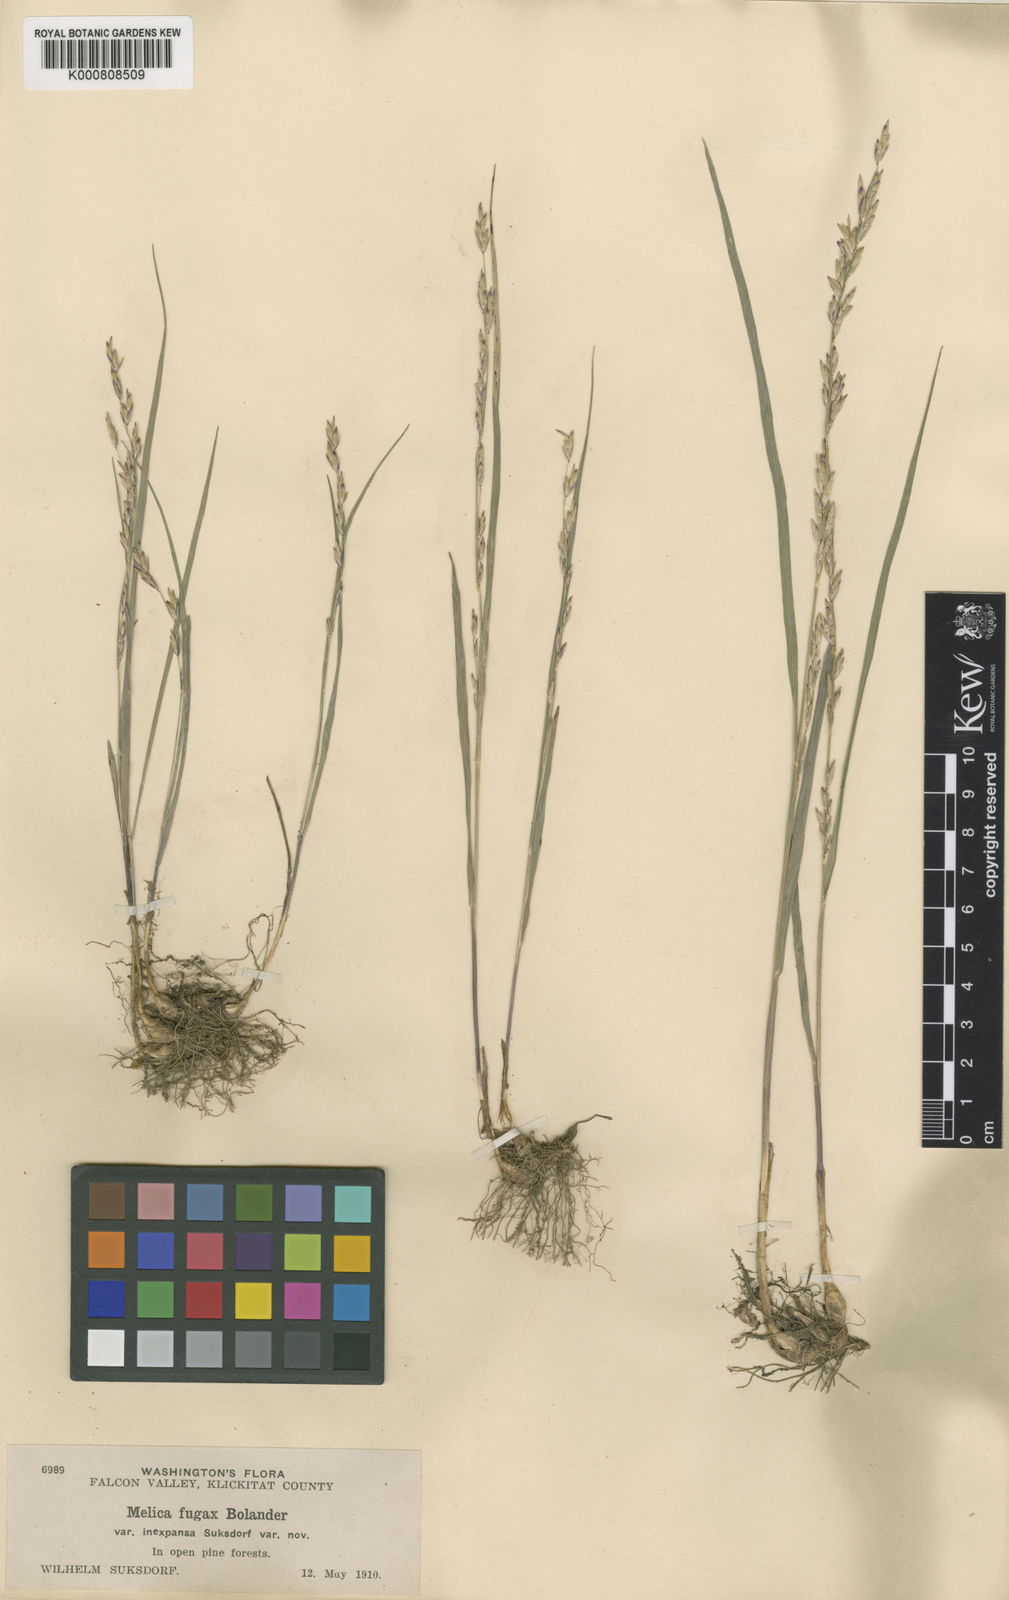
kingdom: Plantae
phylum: Tracheophyta
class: Liliopsida
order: Poales
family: Poaceae
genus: Melica
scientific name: Melica fugax
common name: Little melic
